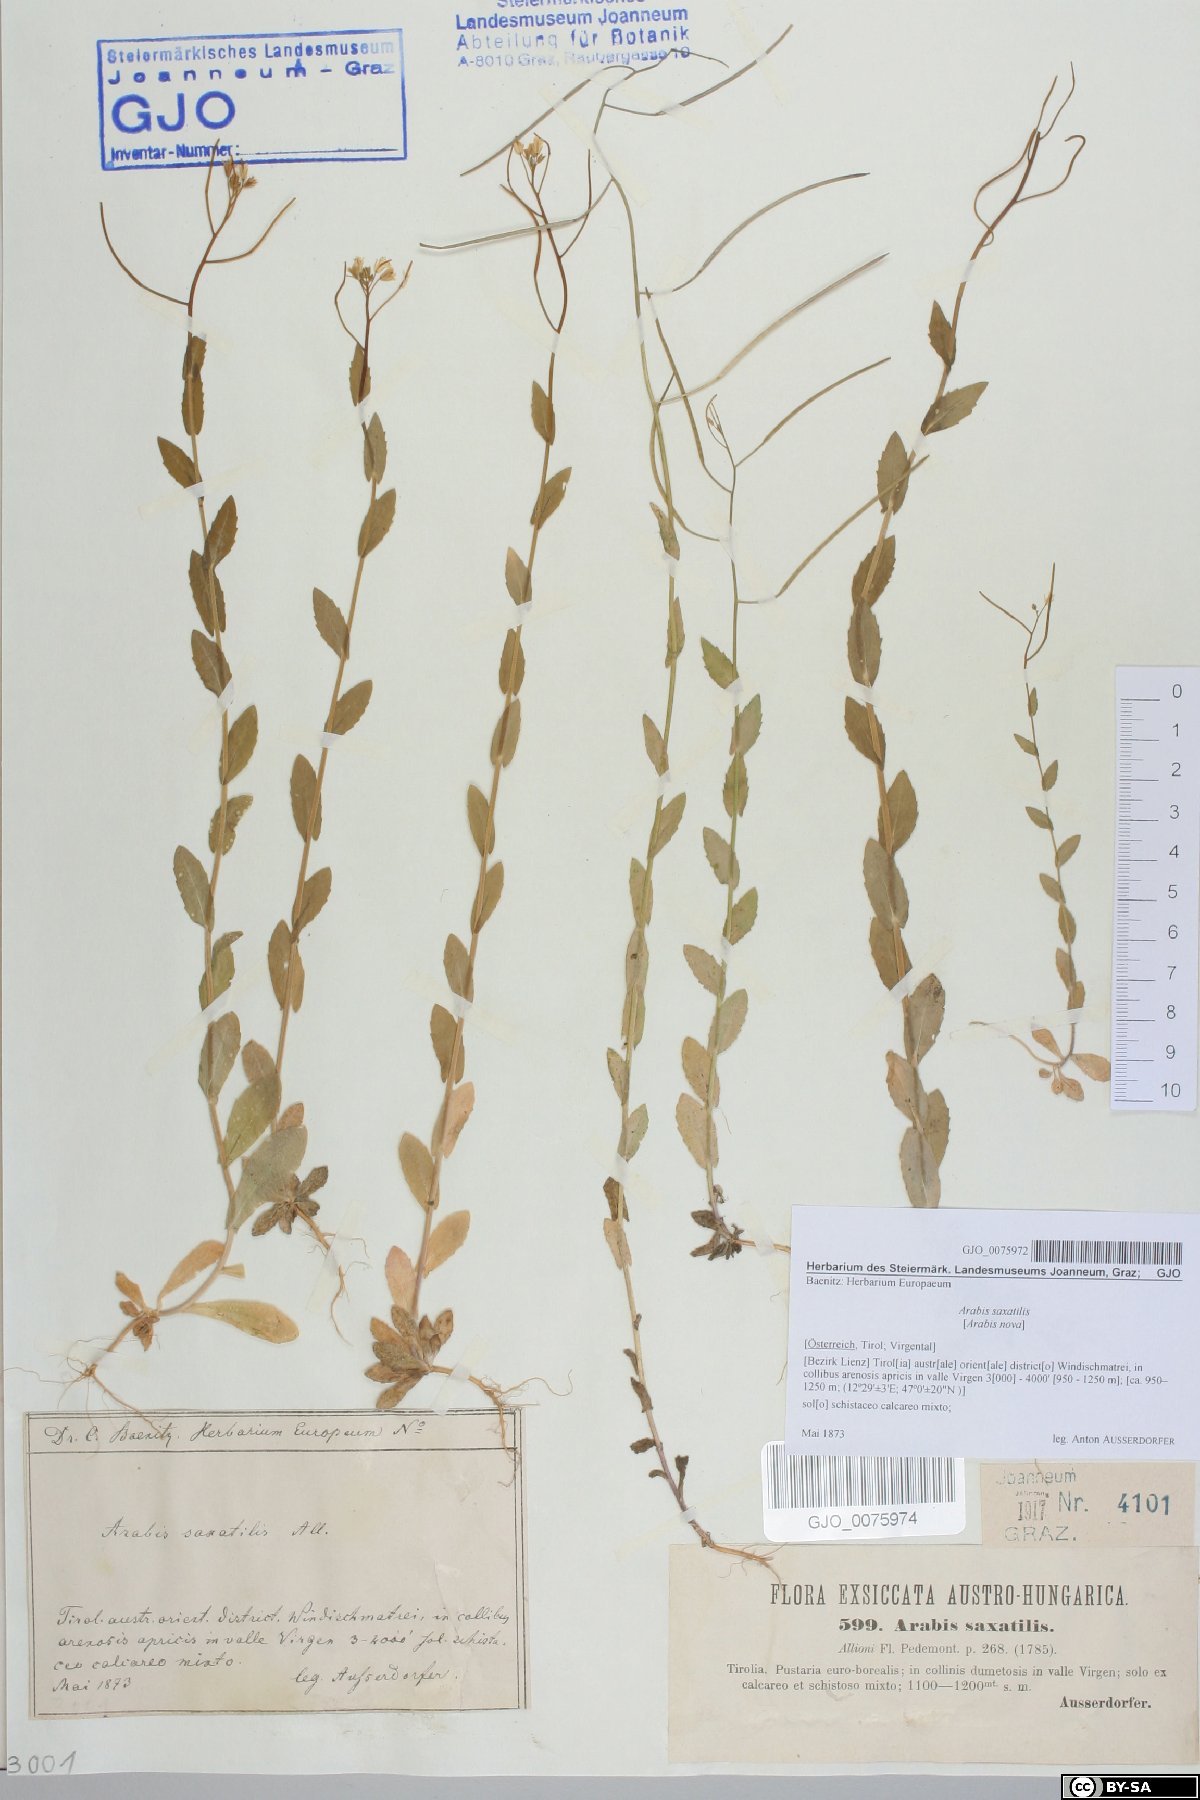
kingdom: Plantae
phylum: Tracheophyta
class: Magnoliopsida
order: Brassicales
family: Brassicaceae
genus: Arabis
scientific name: Arabis nova
